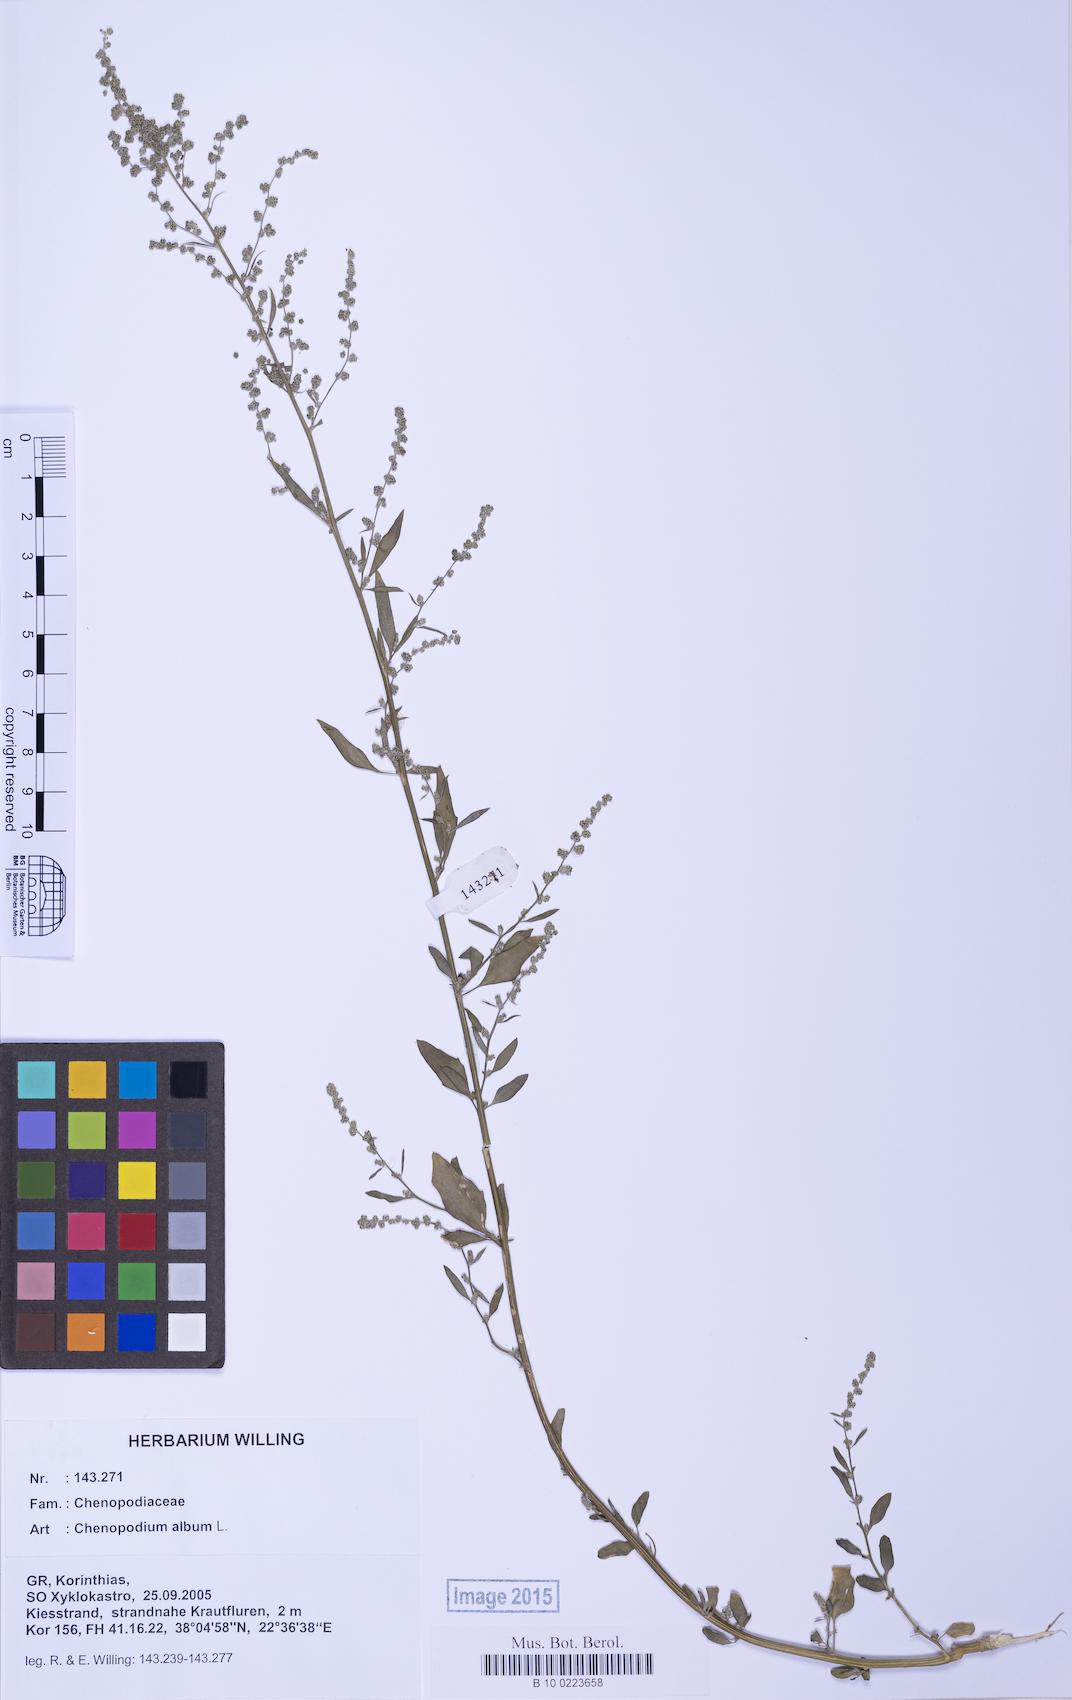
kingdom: Plantae
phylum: Tracheophyta
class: Magnoliopsida
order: Caryophyllales
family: Amaranthaceae
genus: Chenopodium
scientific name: Chenopodium album
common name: Fat-hen
